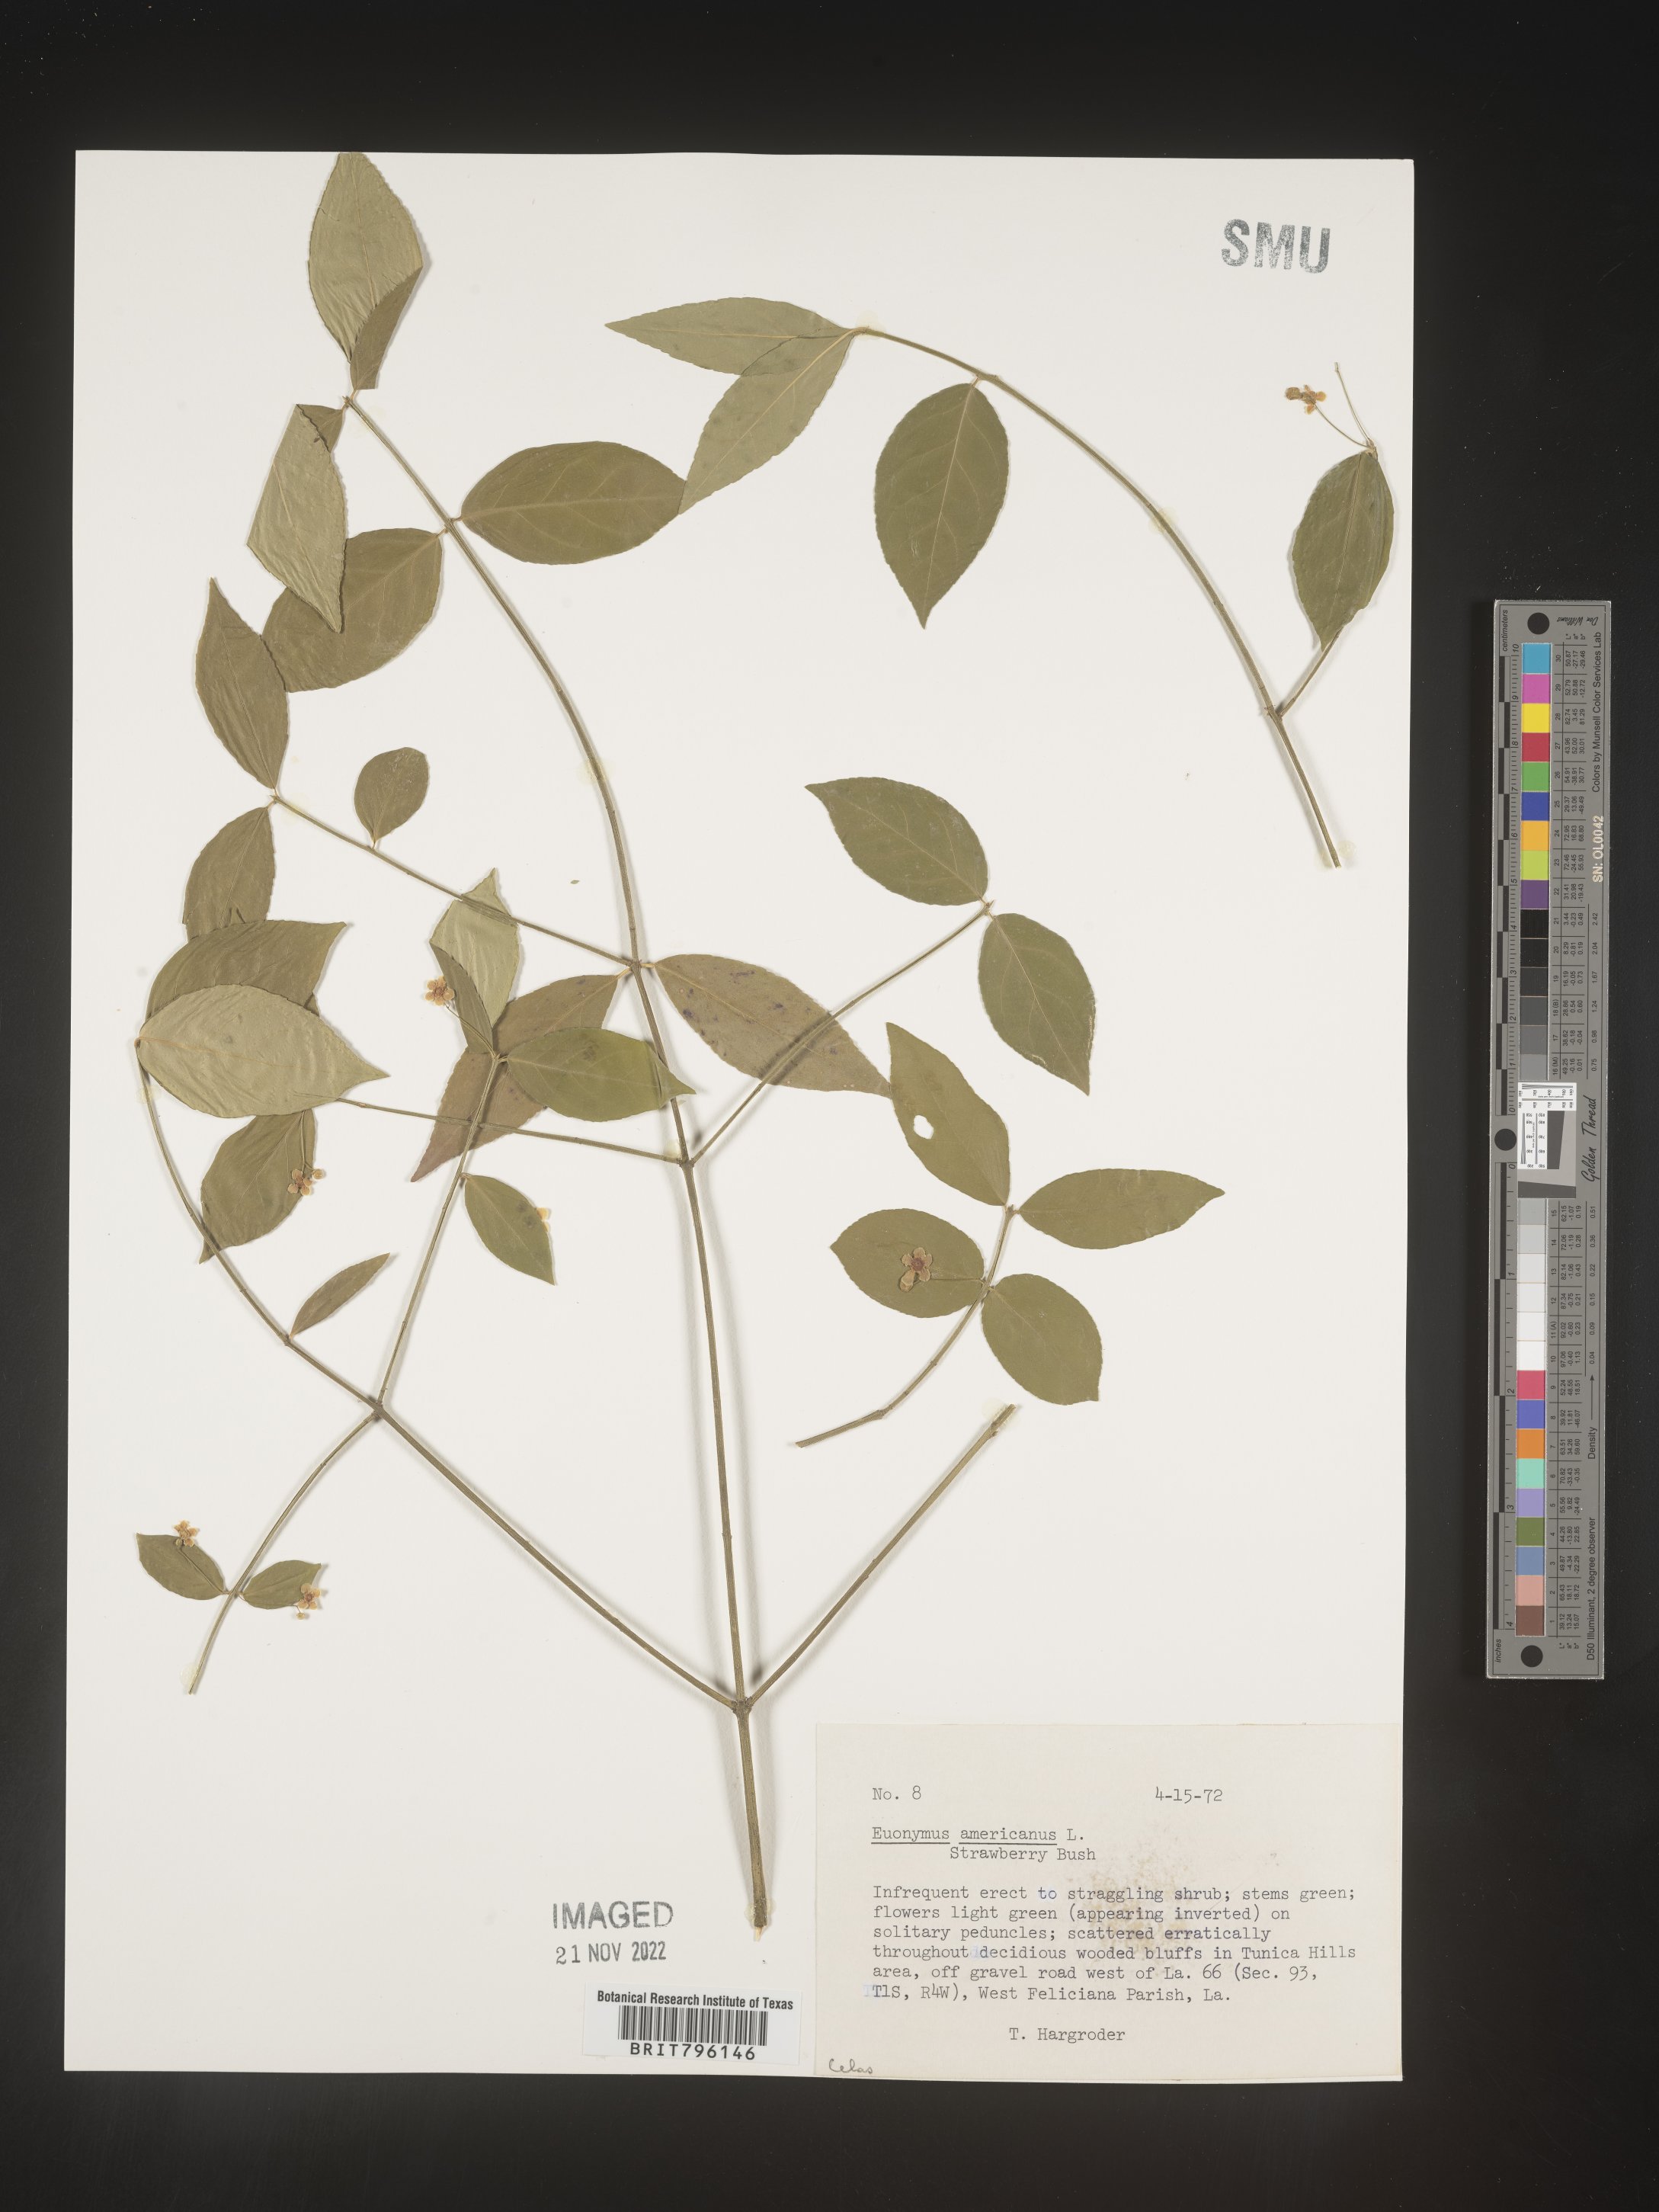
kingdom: Plantae
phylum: Tracheophyta
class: Magnoliopsida
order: Celastrales
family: Celastraceae
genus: Euonymus
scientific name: Euonymus americanus
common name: Bursting-heart
